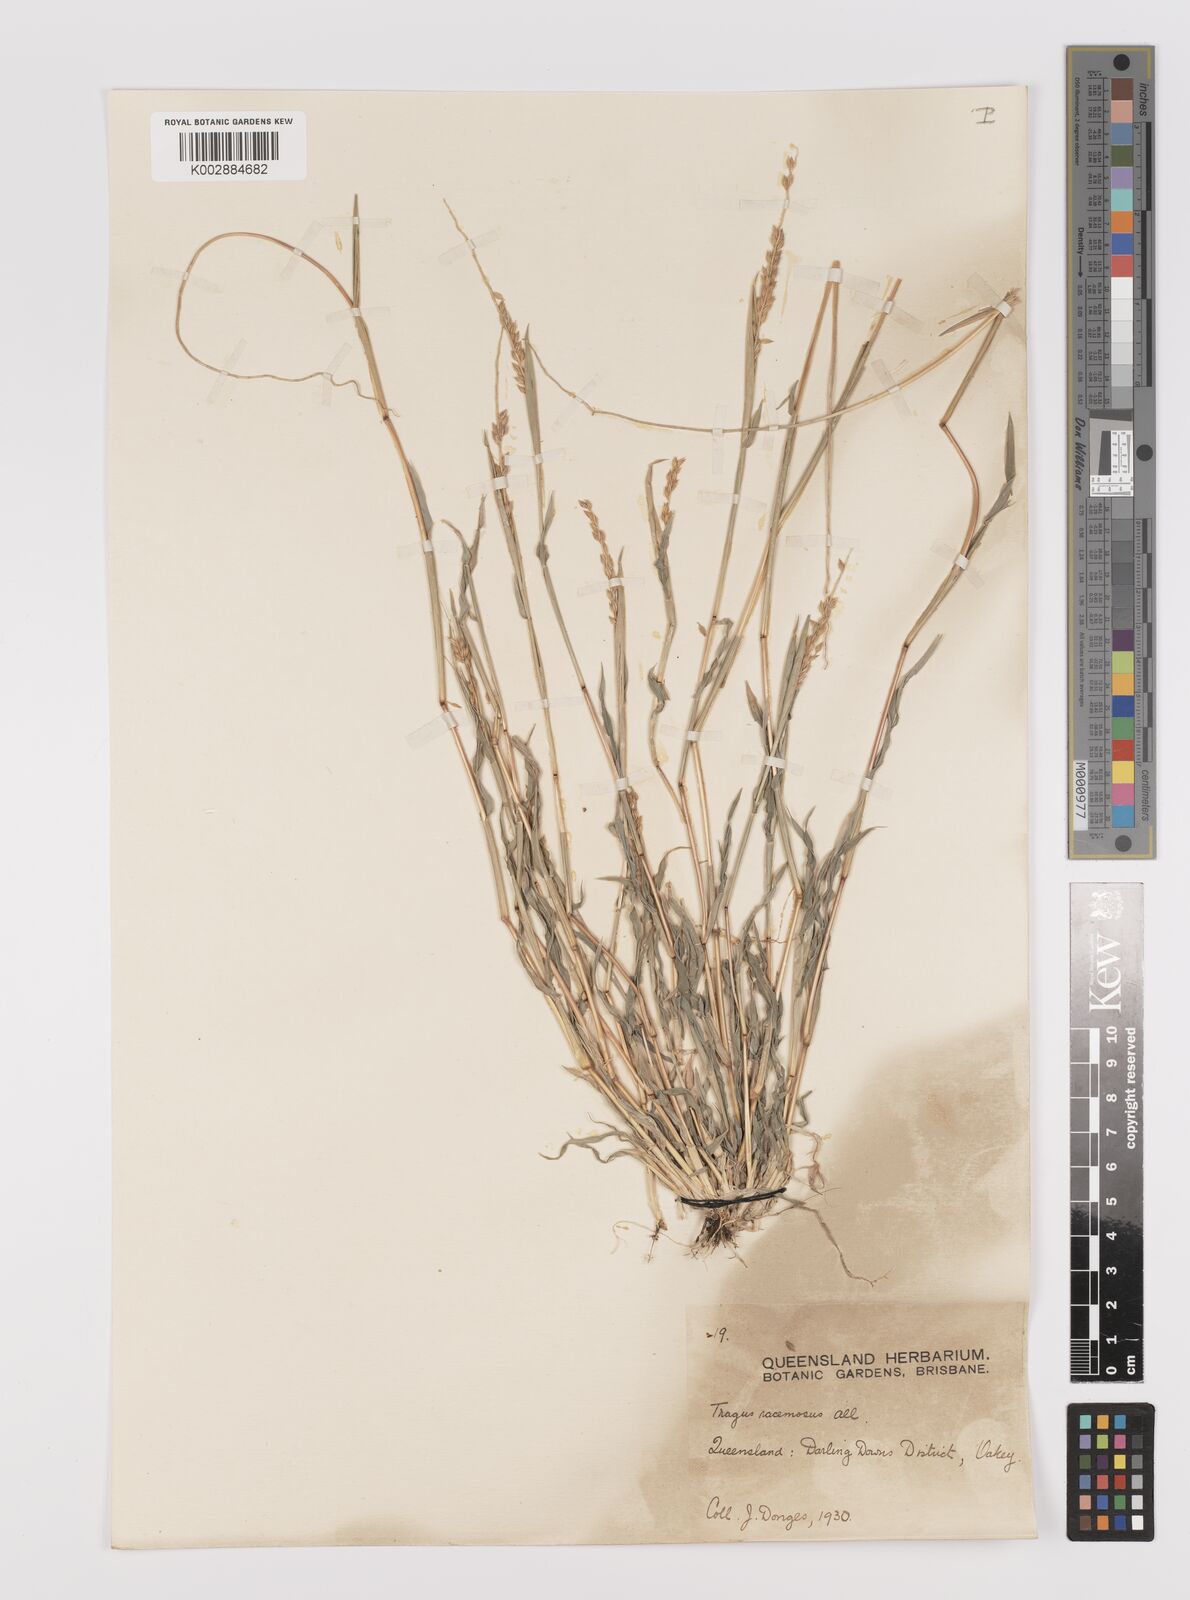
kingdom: Plantae
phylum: Tracheophyta
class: Liliopsida
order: Poales
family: Poaceae
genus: Tragus
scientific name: Tragus australianus
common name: Australian bur-grass
